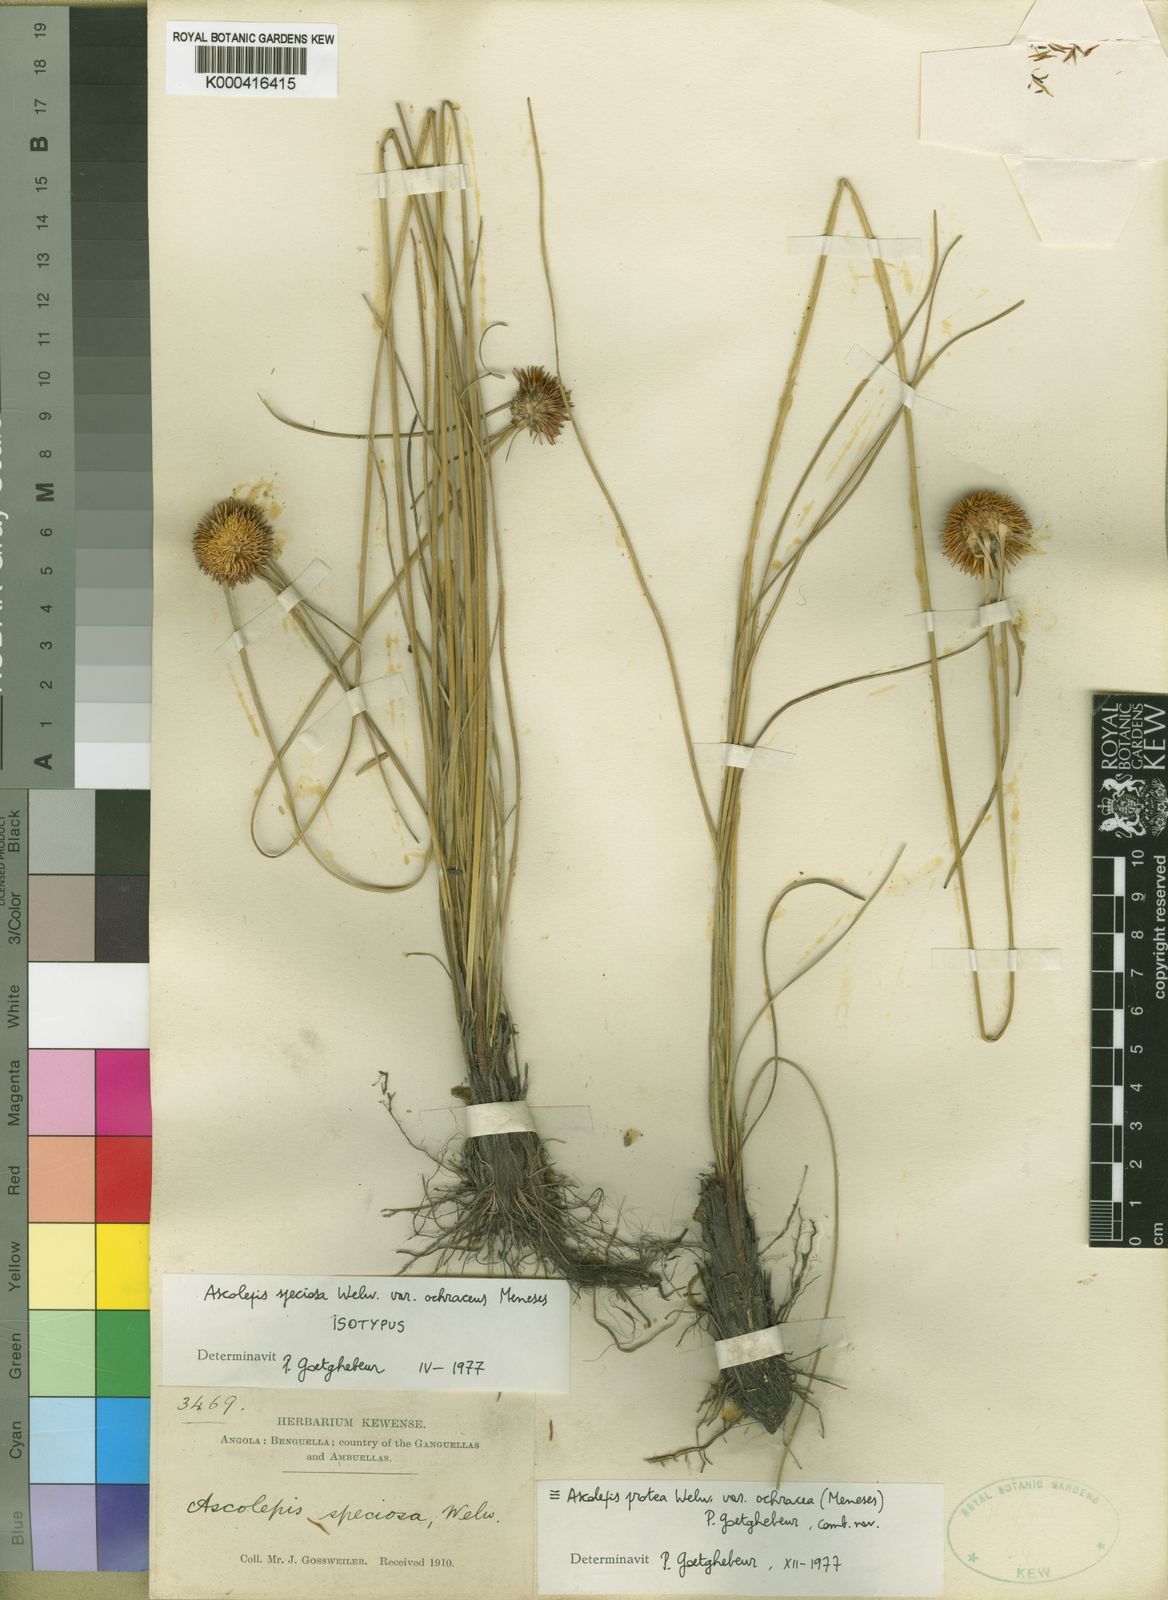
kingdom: Plantae
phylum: Tracheophyta
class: Liliopsida
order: Poales
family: Cyperaceae
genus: Cyperus
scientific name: Cyperus proteus
